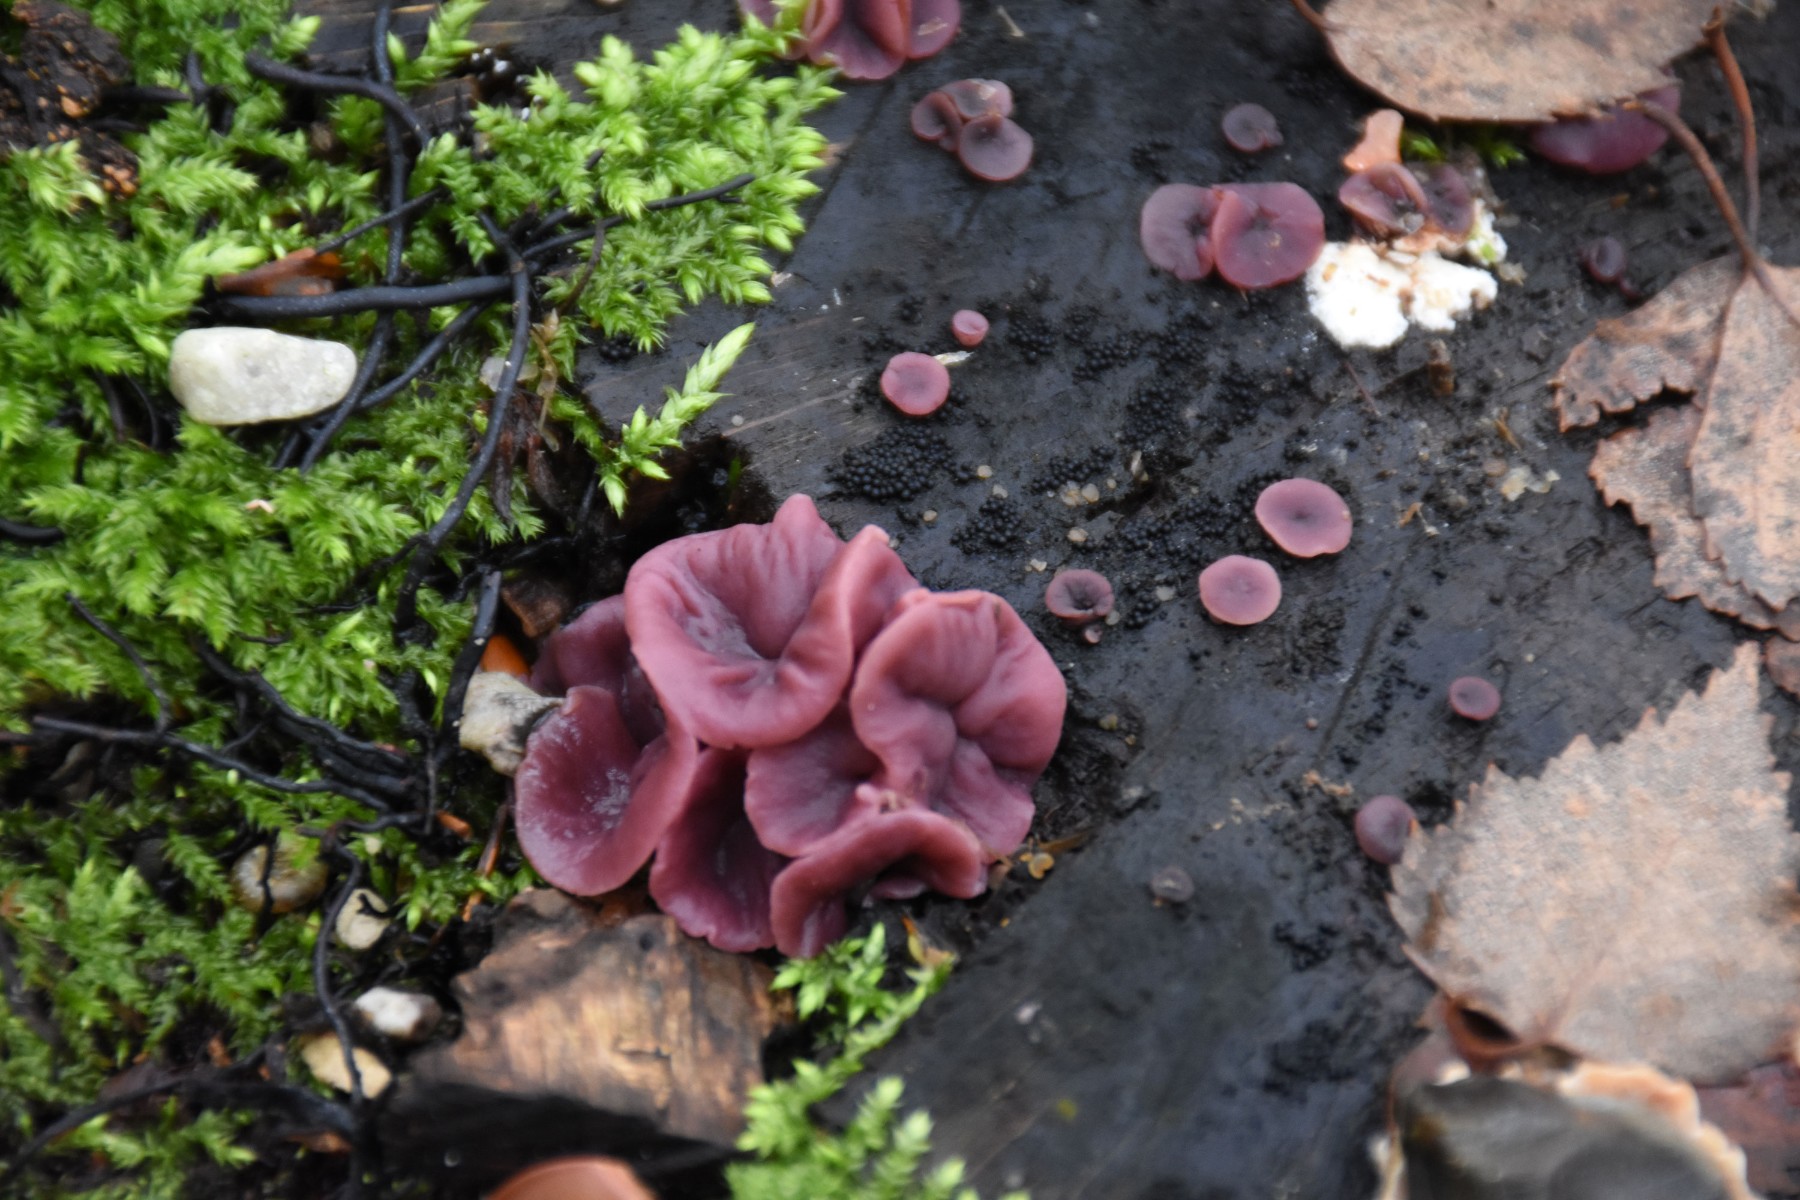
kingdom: Fungi
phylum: Ascomycota
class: Leotiomycetes
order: Helotiales
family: Gelatinodiscaceae
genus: Ascocoryne
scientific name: Ascocoryne cylichnium
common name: stor sejskive
